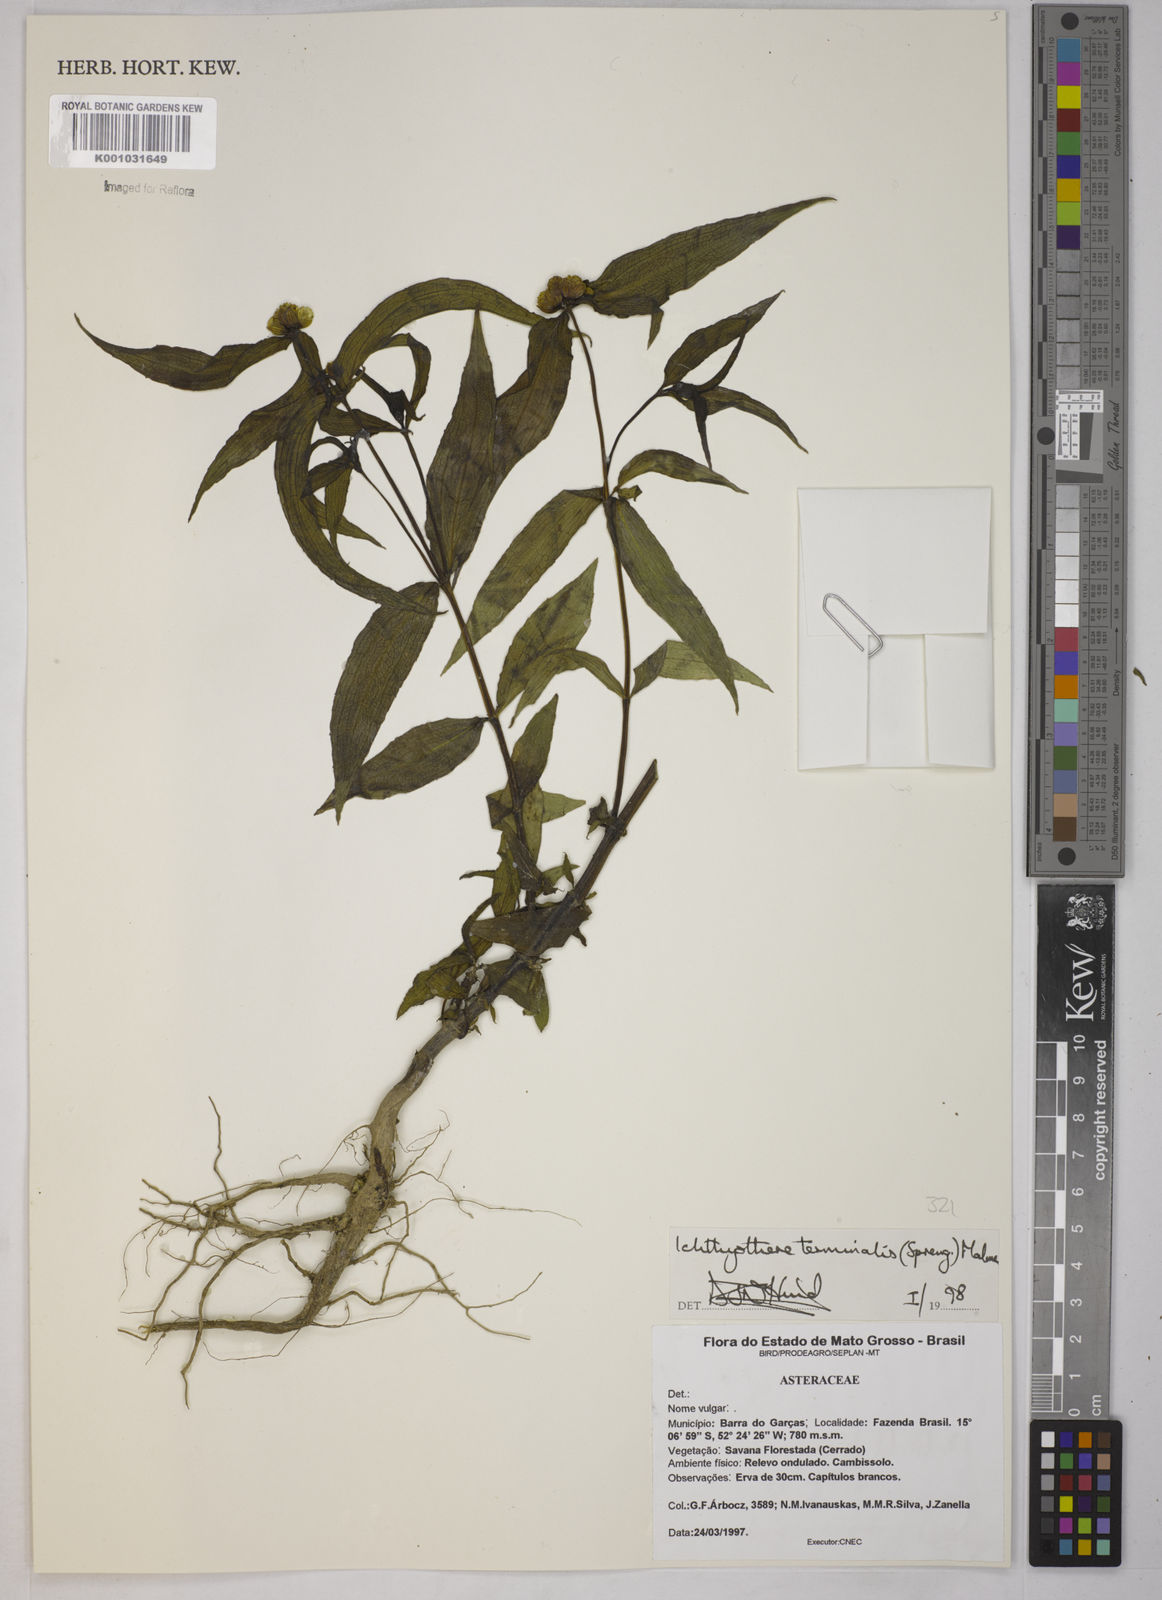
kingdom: Plantae
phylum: Tracheophyta
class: Magnoliopsida
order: Asterales
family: Asteraceae
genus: Ichthyothere
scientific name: Ichthyothere terminalis
